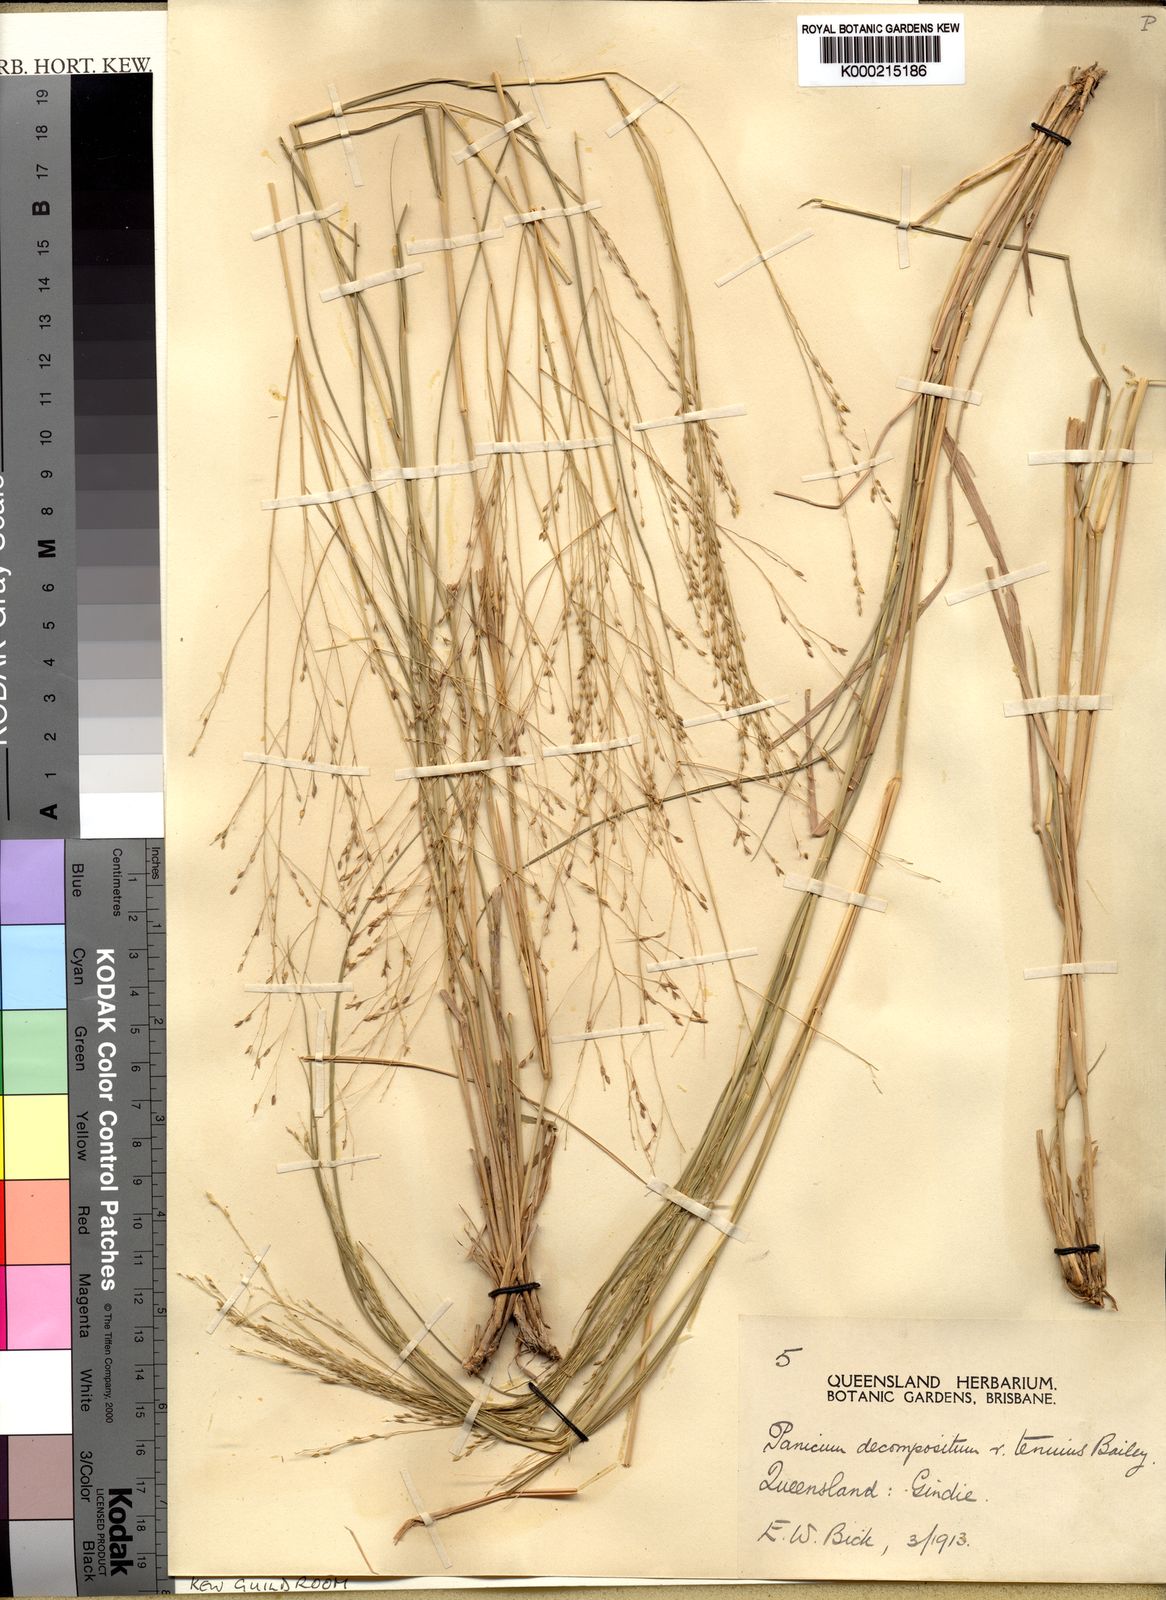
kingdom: Plantae
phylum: Tracheophyta
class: Liliopsida
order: Poales
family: Poaceae
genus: Panicum
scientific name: Panicum decompositum
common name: Australian millet
